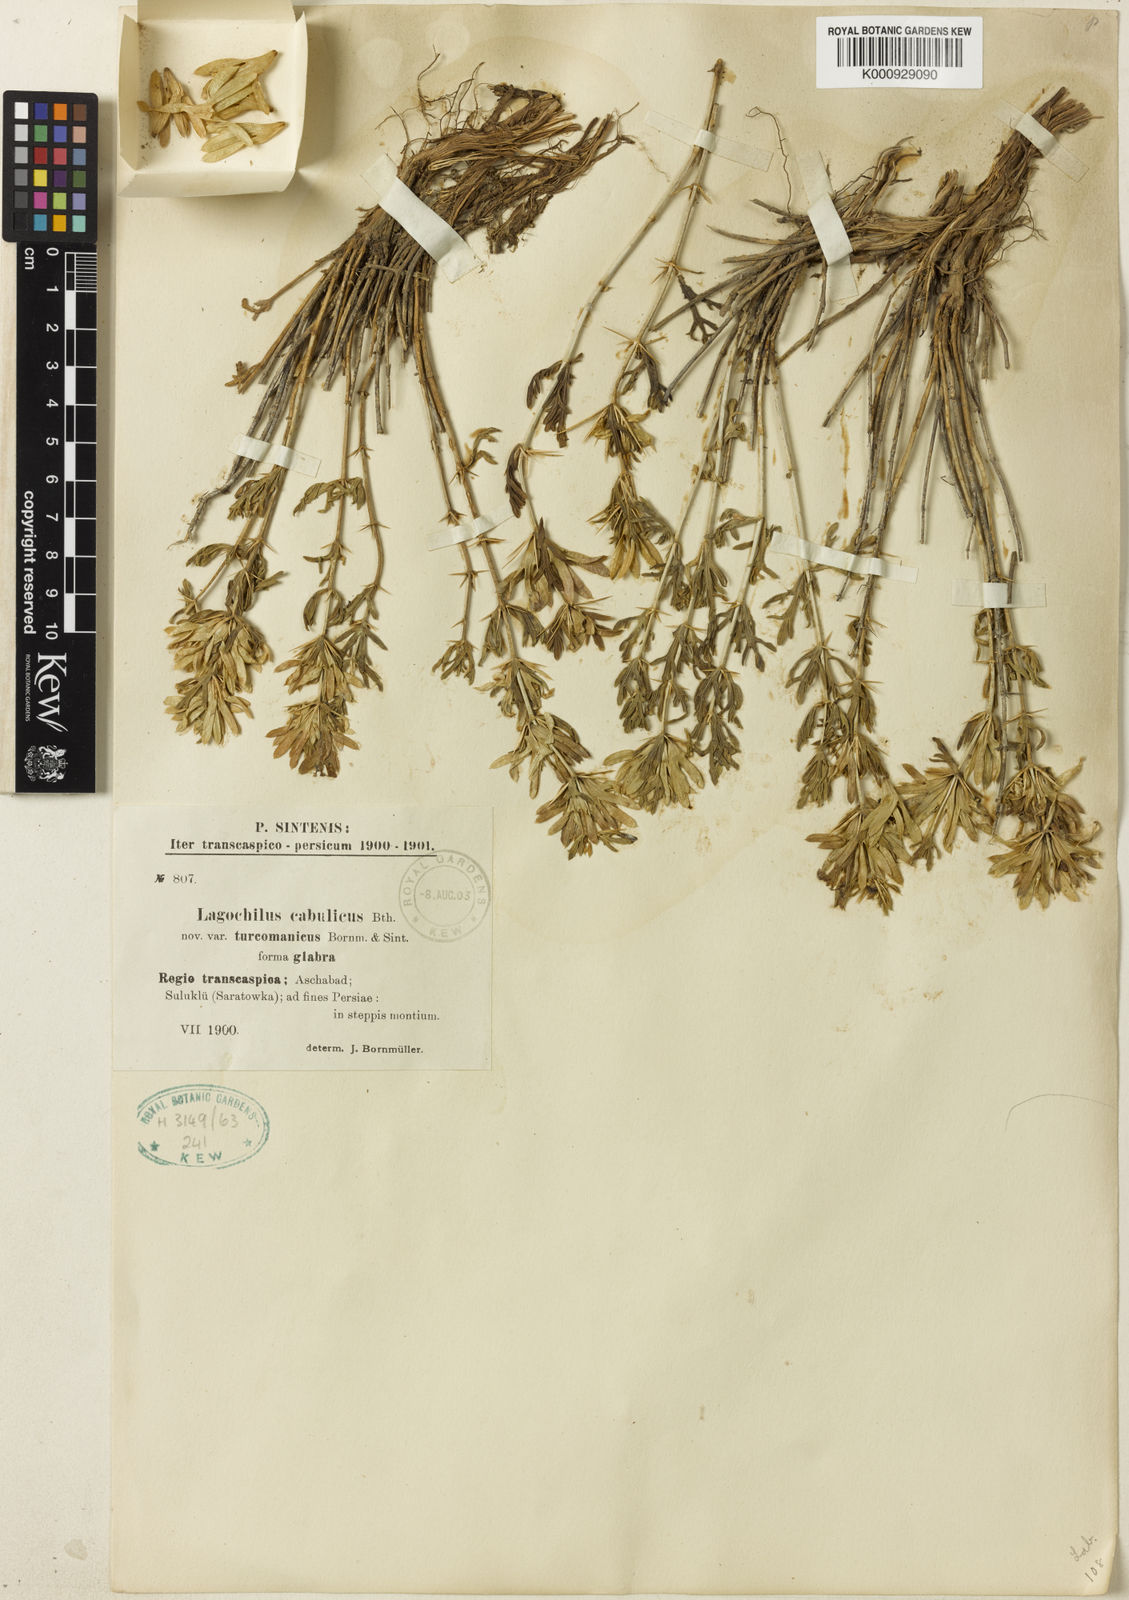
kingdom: Plantae
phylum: Tracheophyta
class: Magnoliopsida
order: Lamiales
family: Lamiaceae
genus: Lagochilus
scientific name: Lagochilus cabulicus
